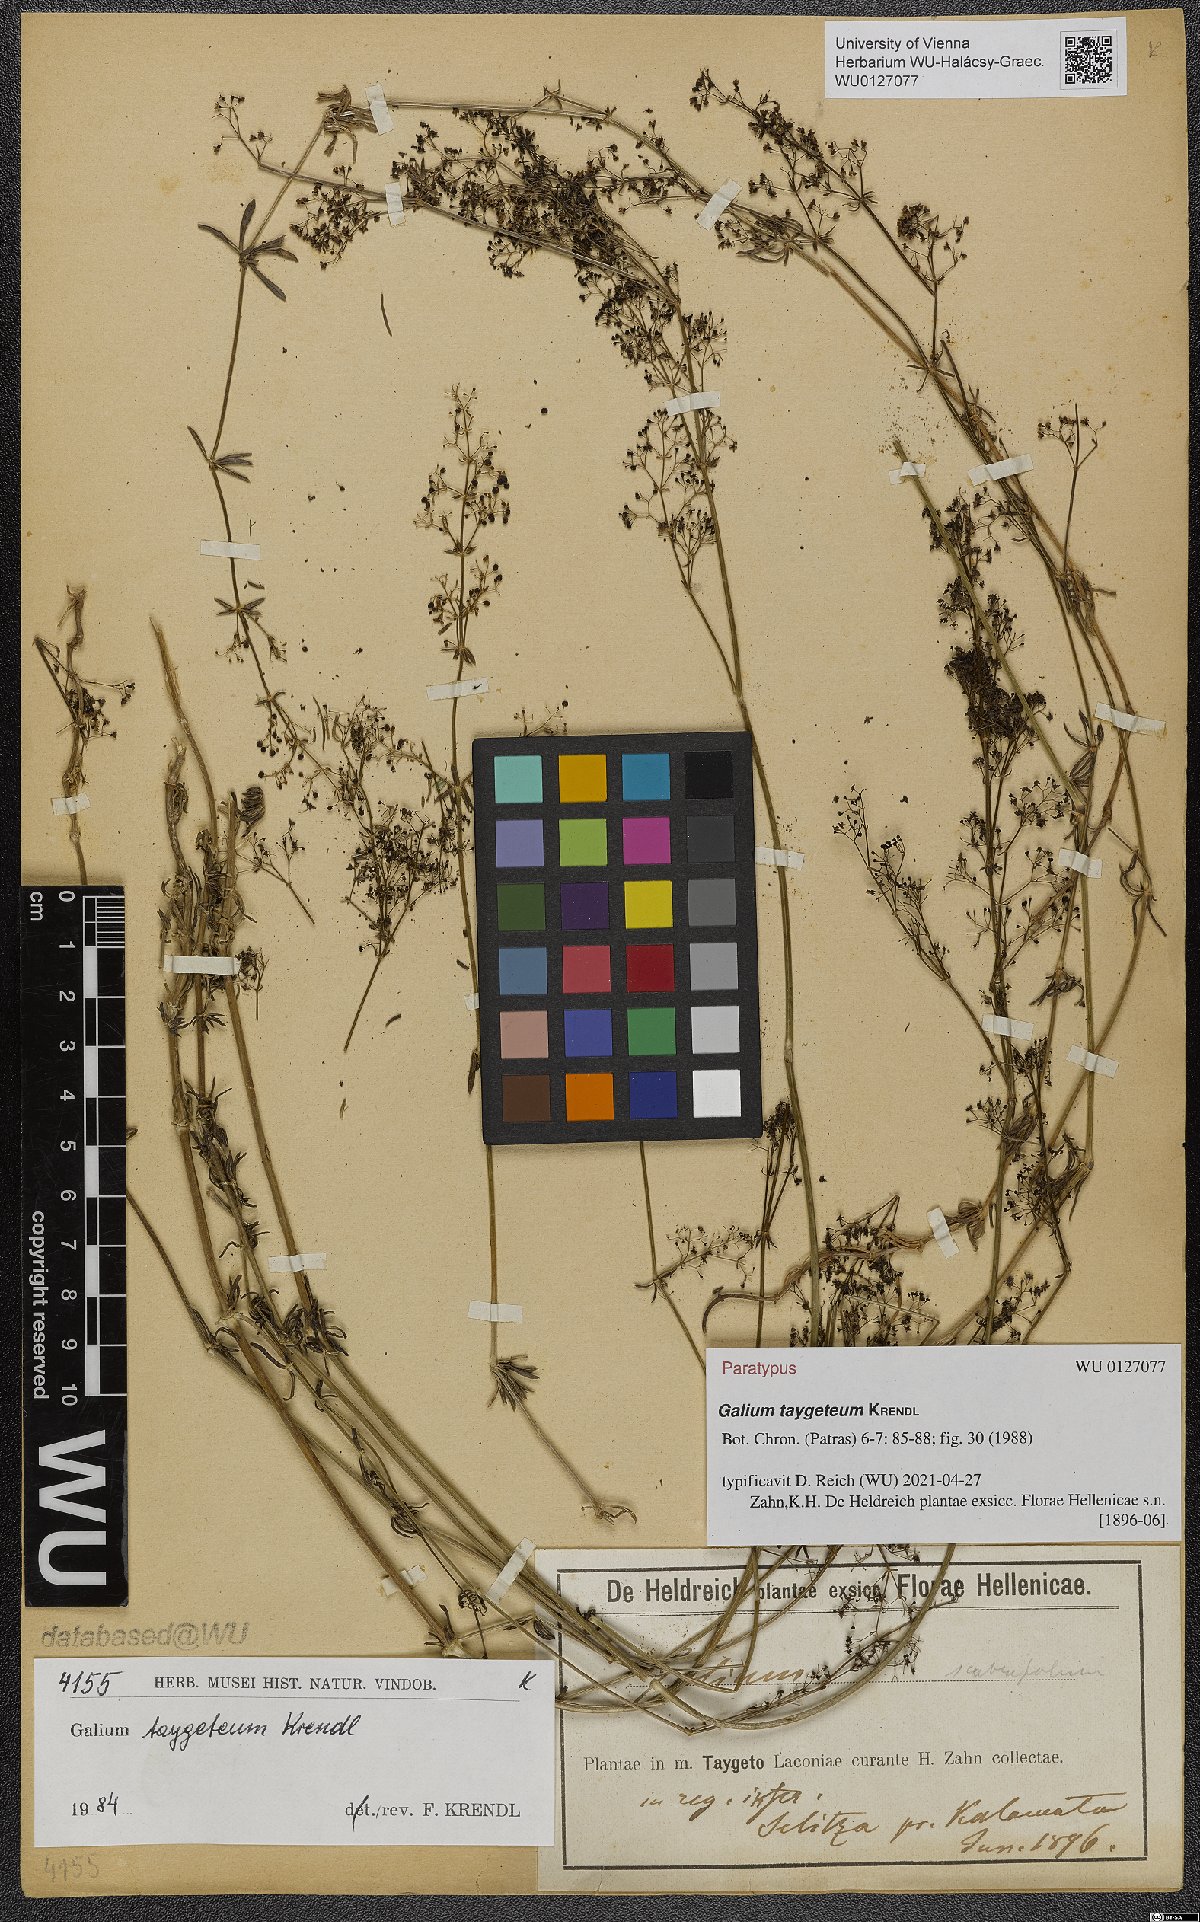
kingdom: Plantae
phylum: Tracheophyta
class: Magnoliopsida
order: Gentianales
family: Rubiaceae
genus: Galium
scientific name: Galium taygeteum
